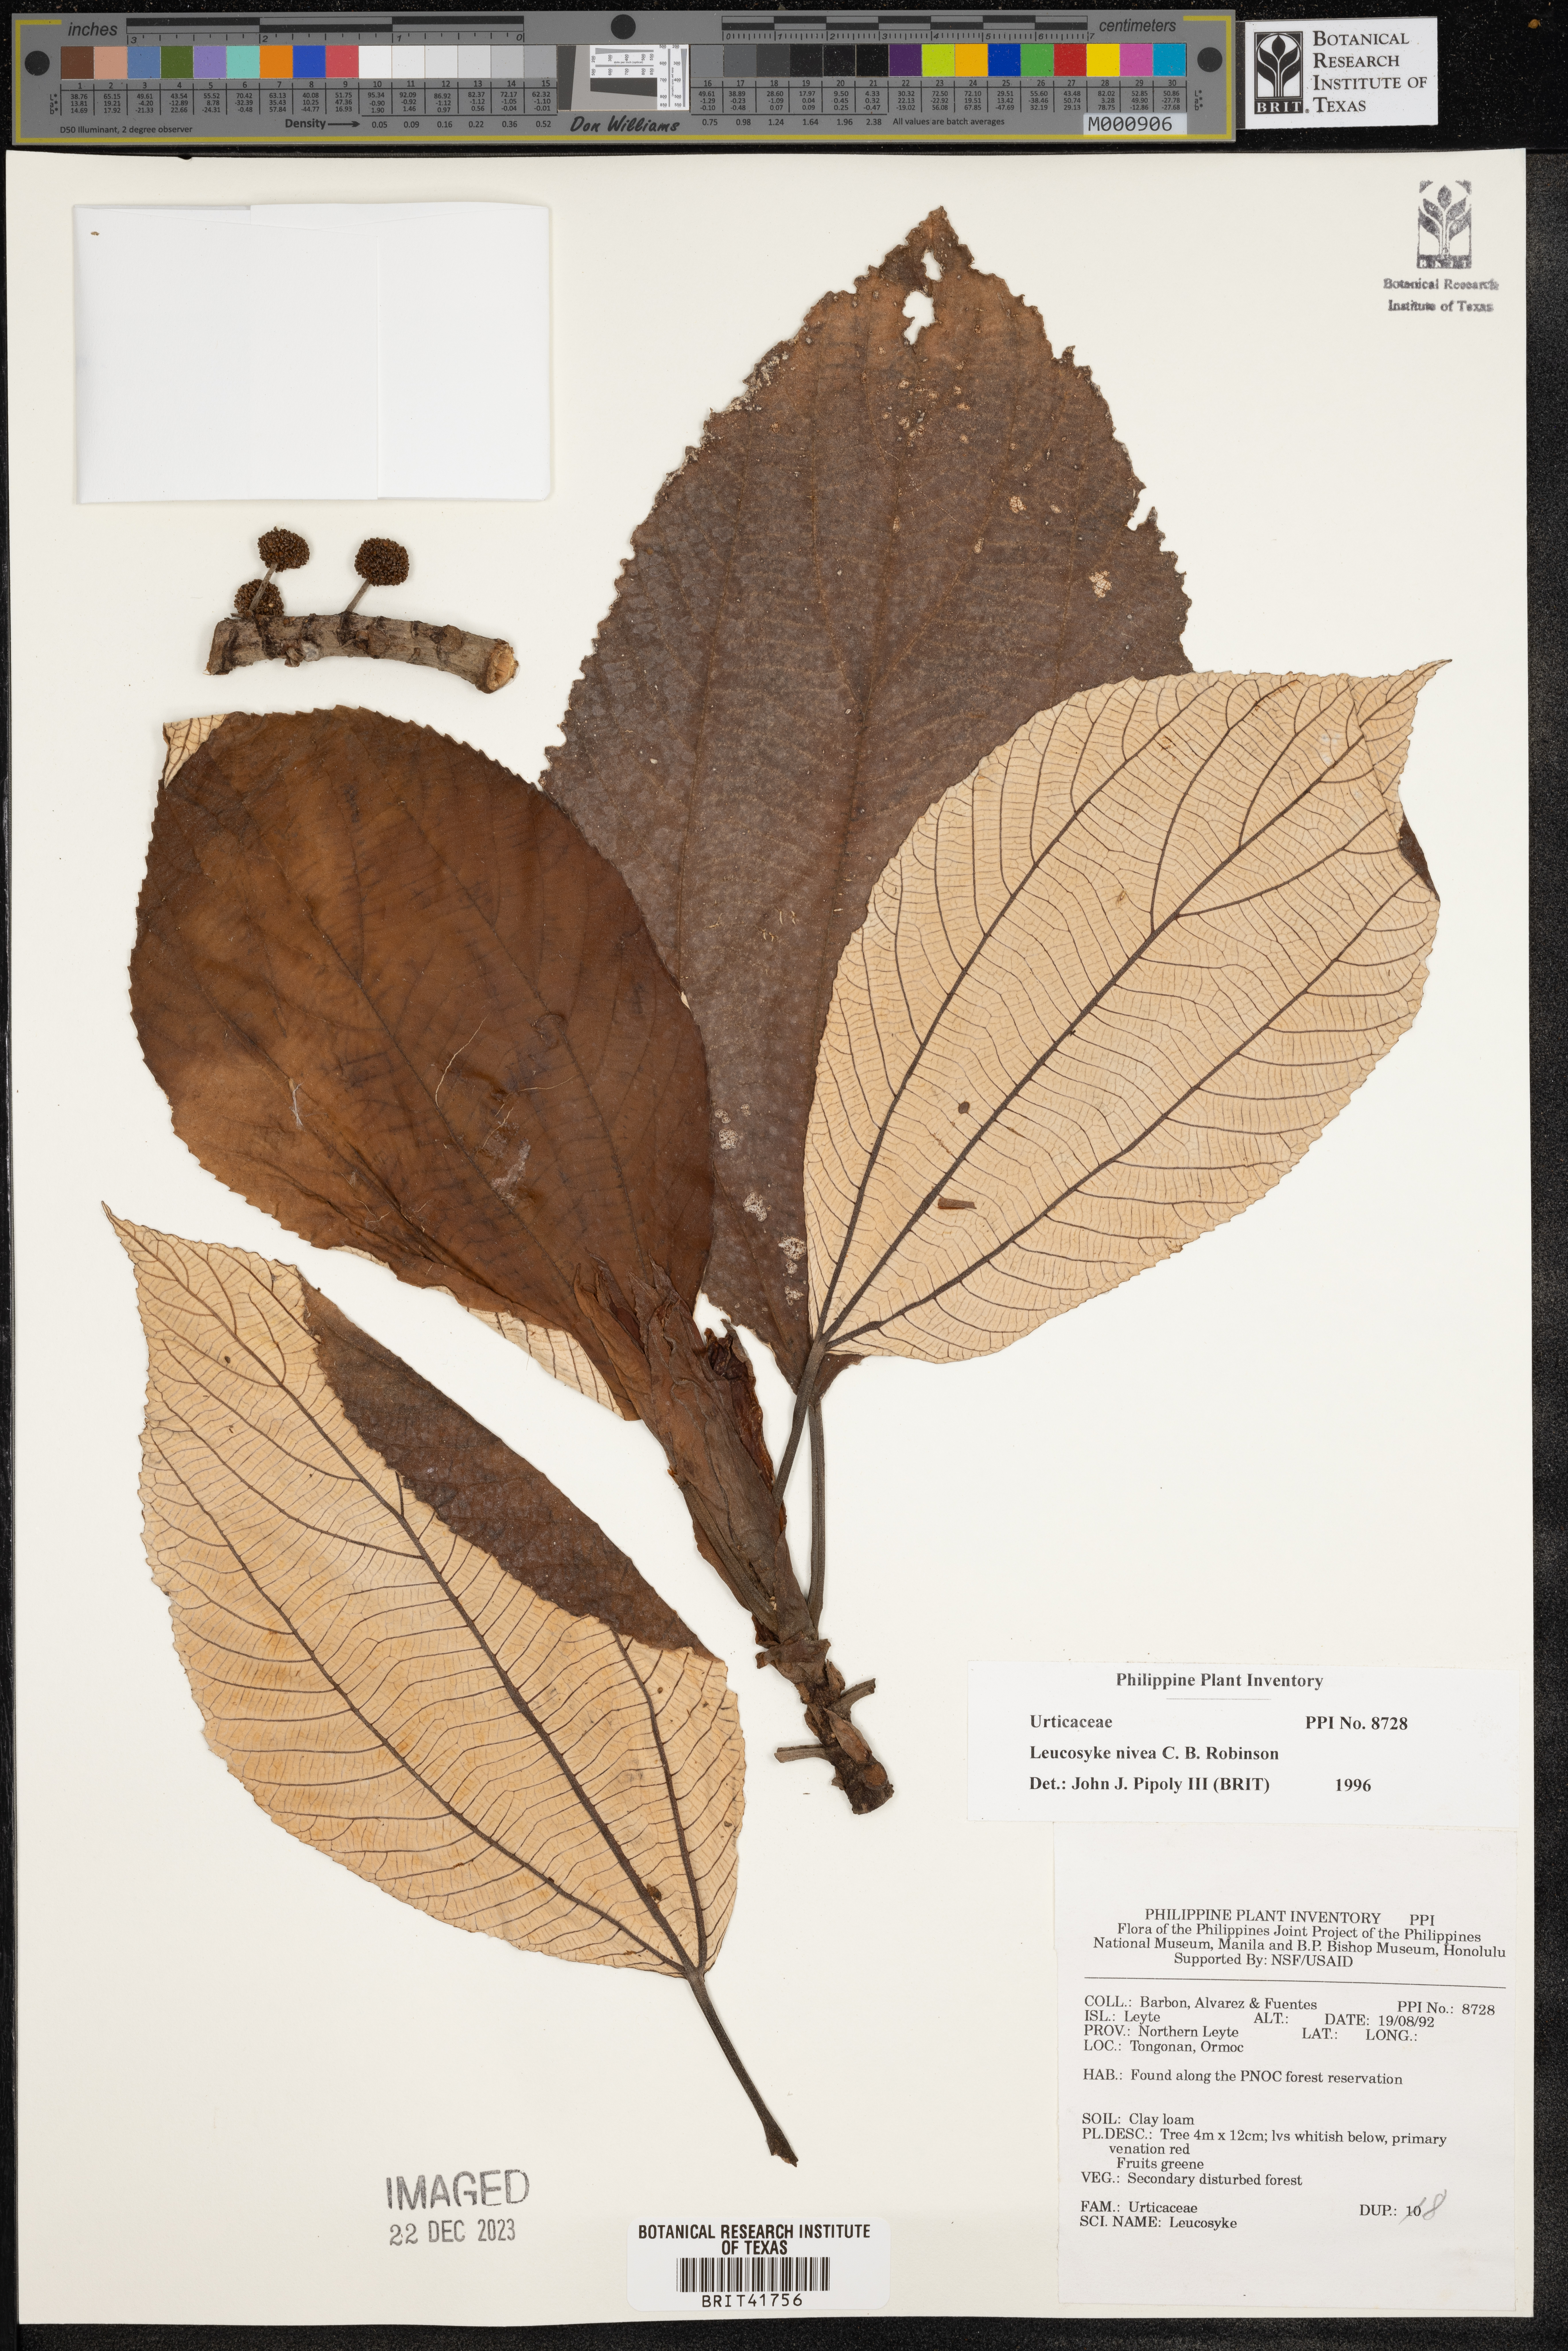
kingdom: Plantae
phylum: Tracheophyta
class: Magnoliopsida
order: Rosales
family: Urticaceae
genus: Leucosyke
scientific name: Leucosyke nivea
